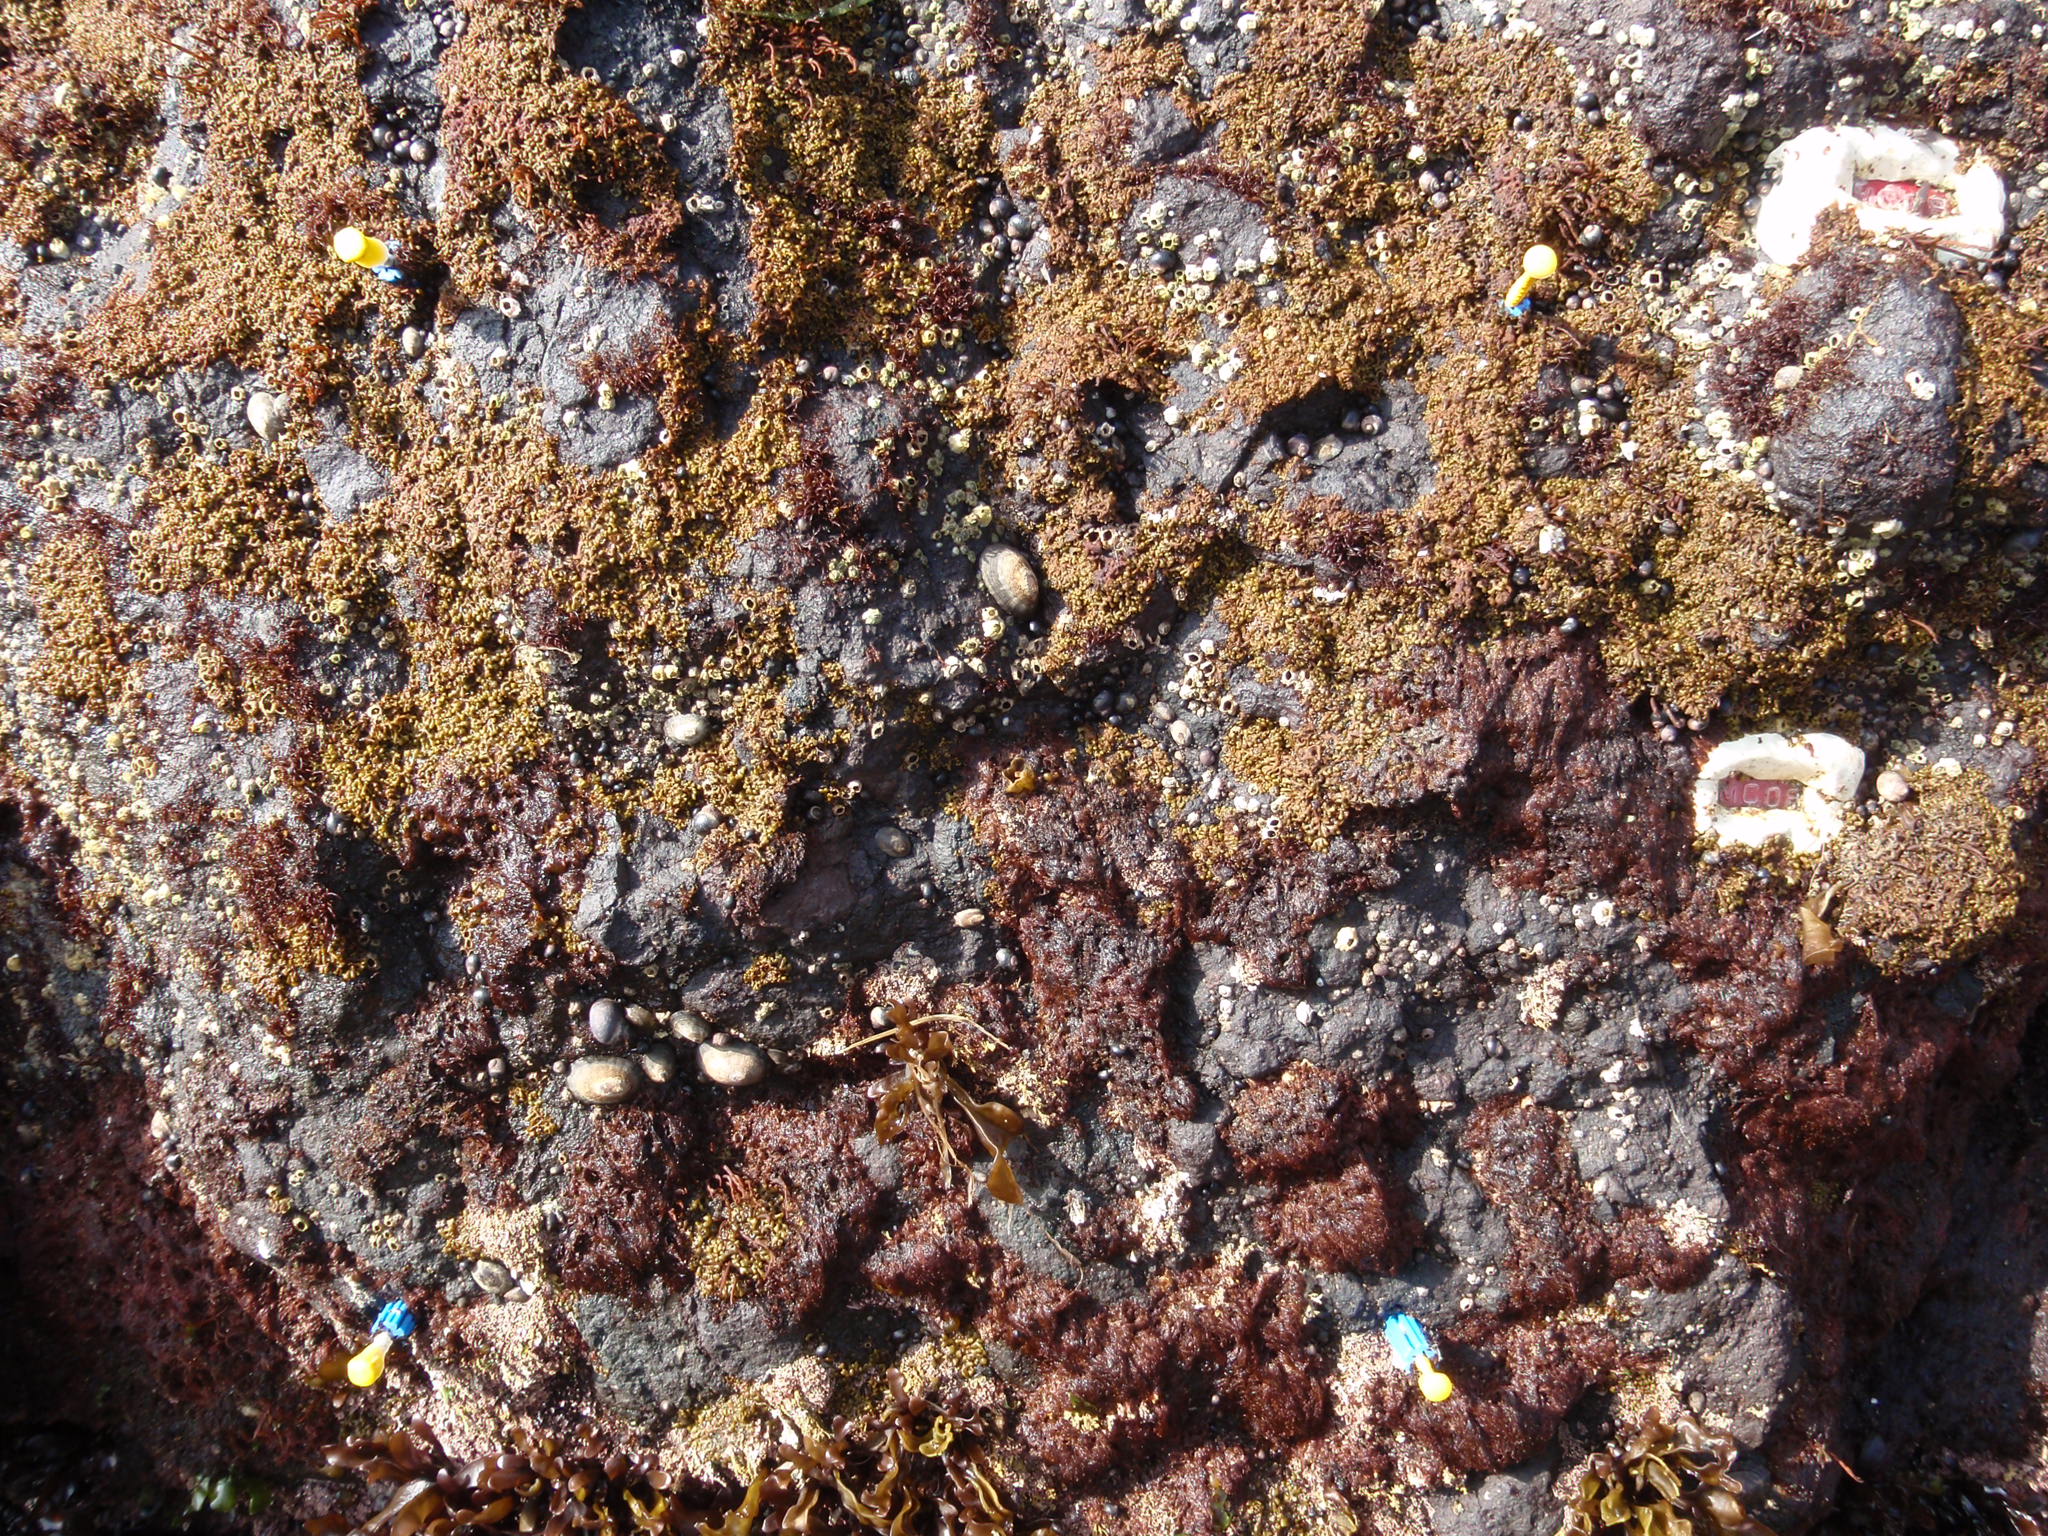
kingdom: Animalia
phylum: Arthropoda
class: Maxillopoda
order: Sessilia
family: Chthamalidae
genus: Chthamalus
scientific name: Chthamalus dalli
